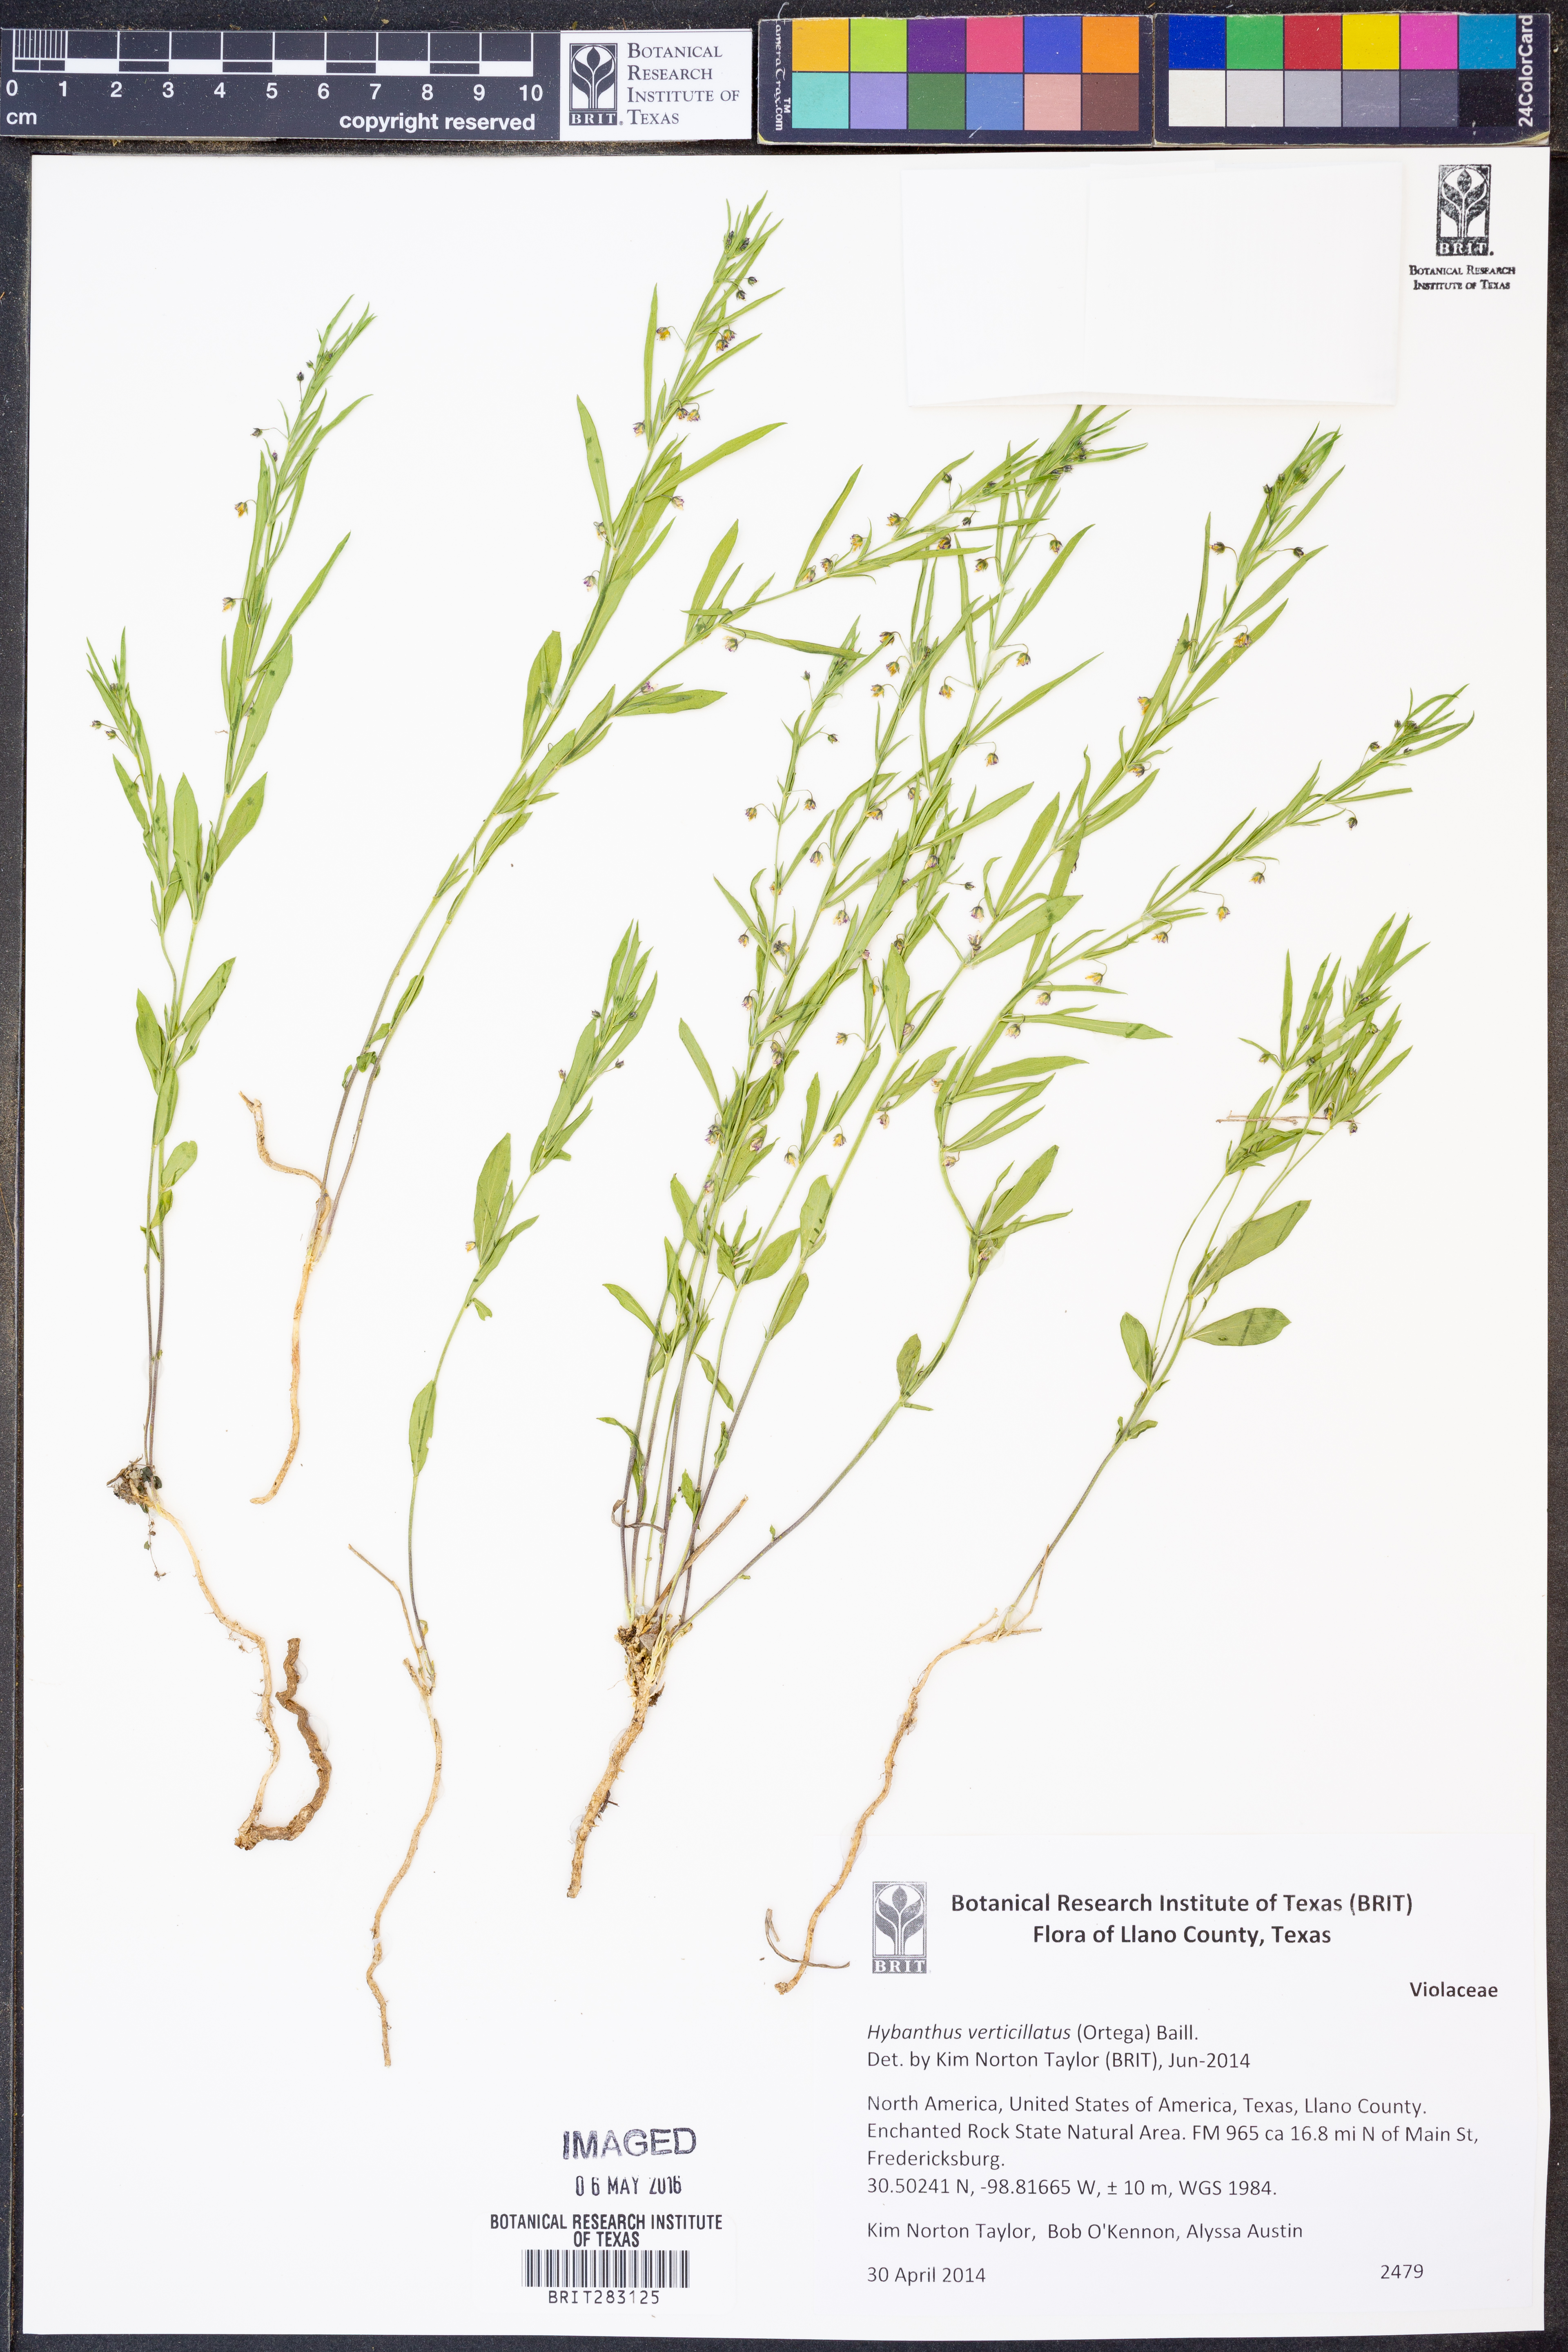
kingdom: Plantae
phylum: Tracheophyta
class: Magnoliopsida
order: Malpighiales
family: Violaceae
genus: Pombalia
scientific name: Pombalia verticillata
